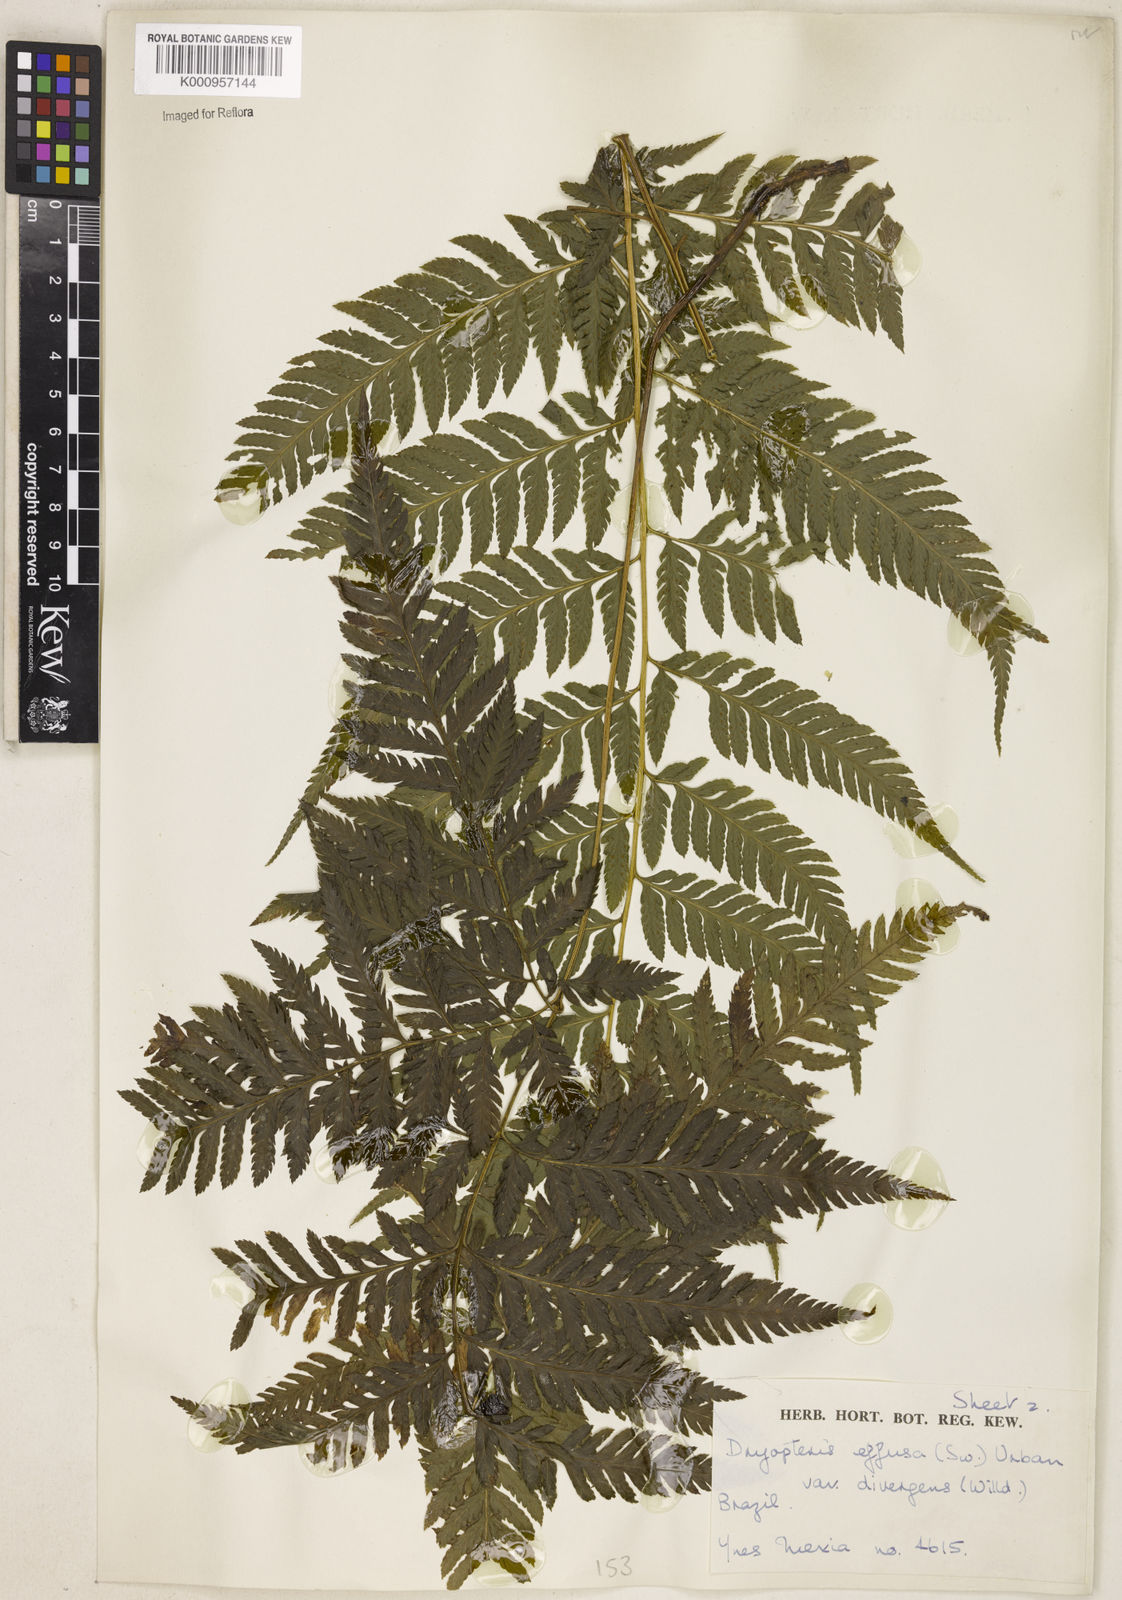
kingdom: Plantae
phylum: Tracheophyta
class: Polypodiopsida
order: Polypodiales
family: Dryopteridaceae
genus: Parapolystichum
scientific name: Parapolystichum effusum
